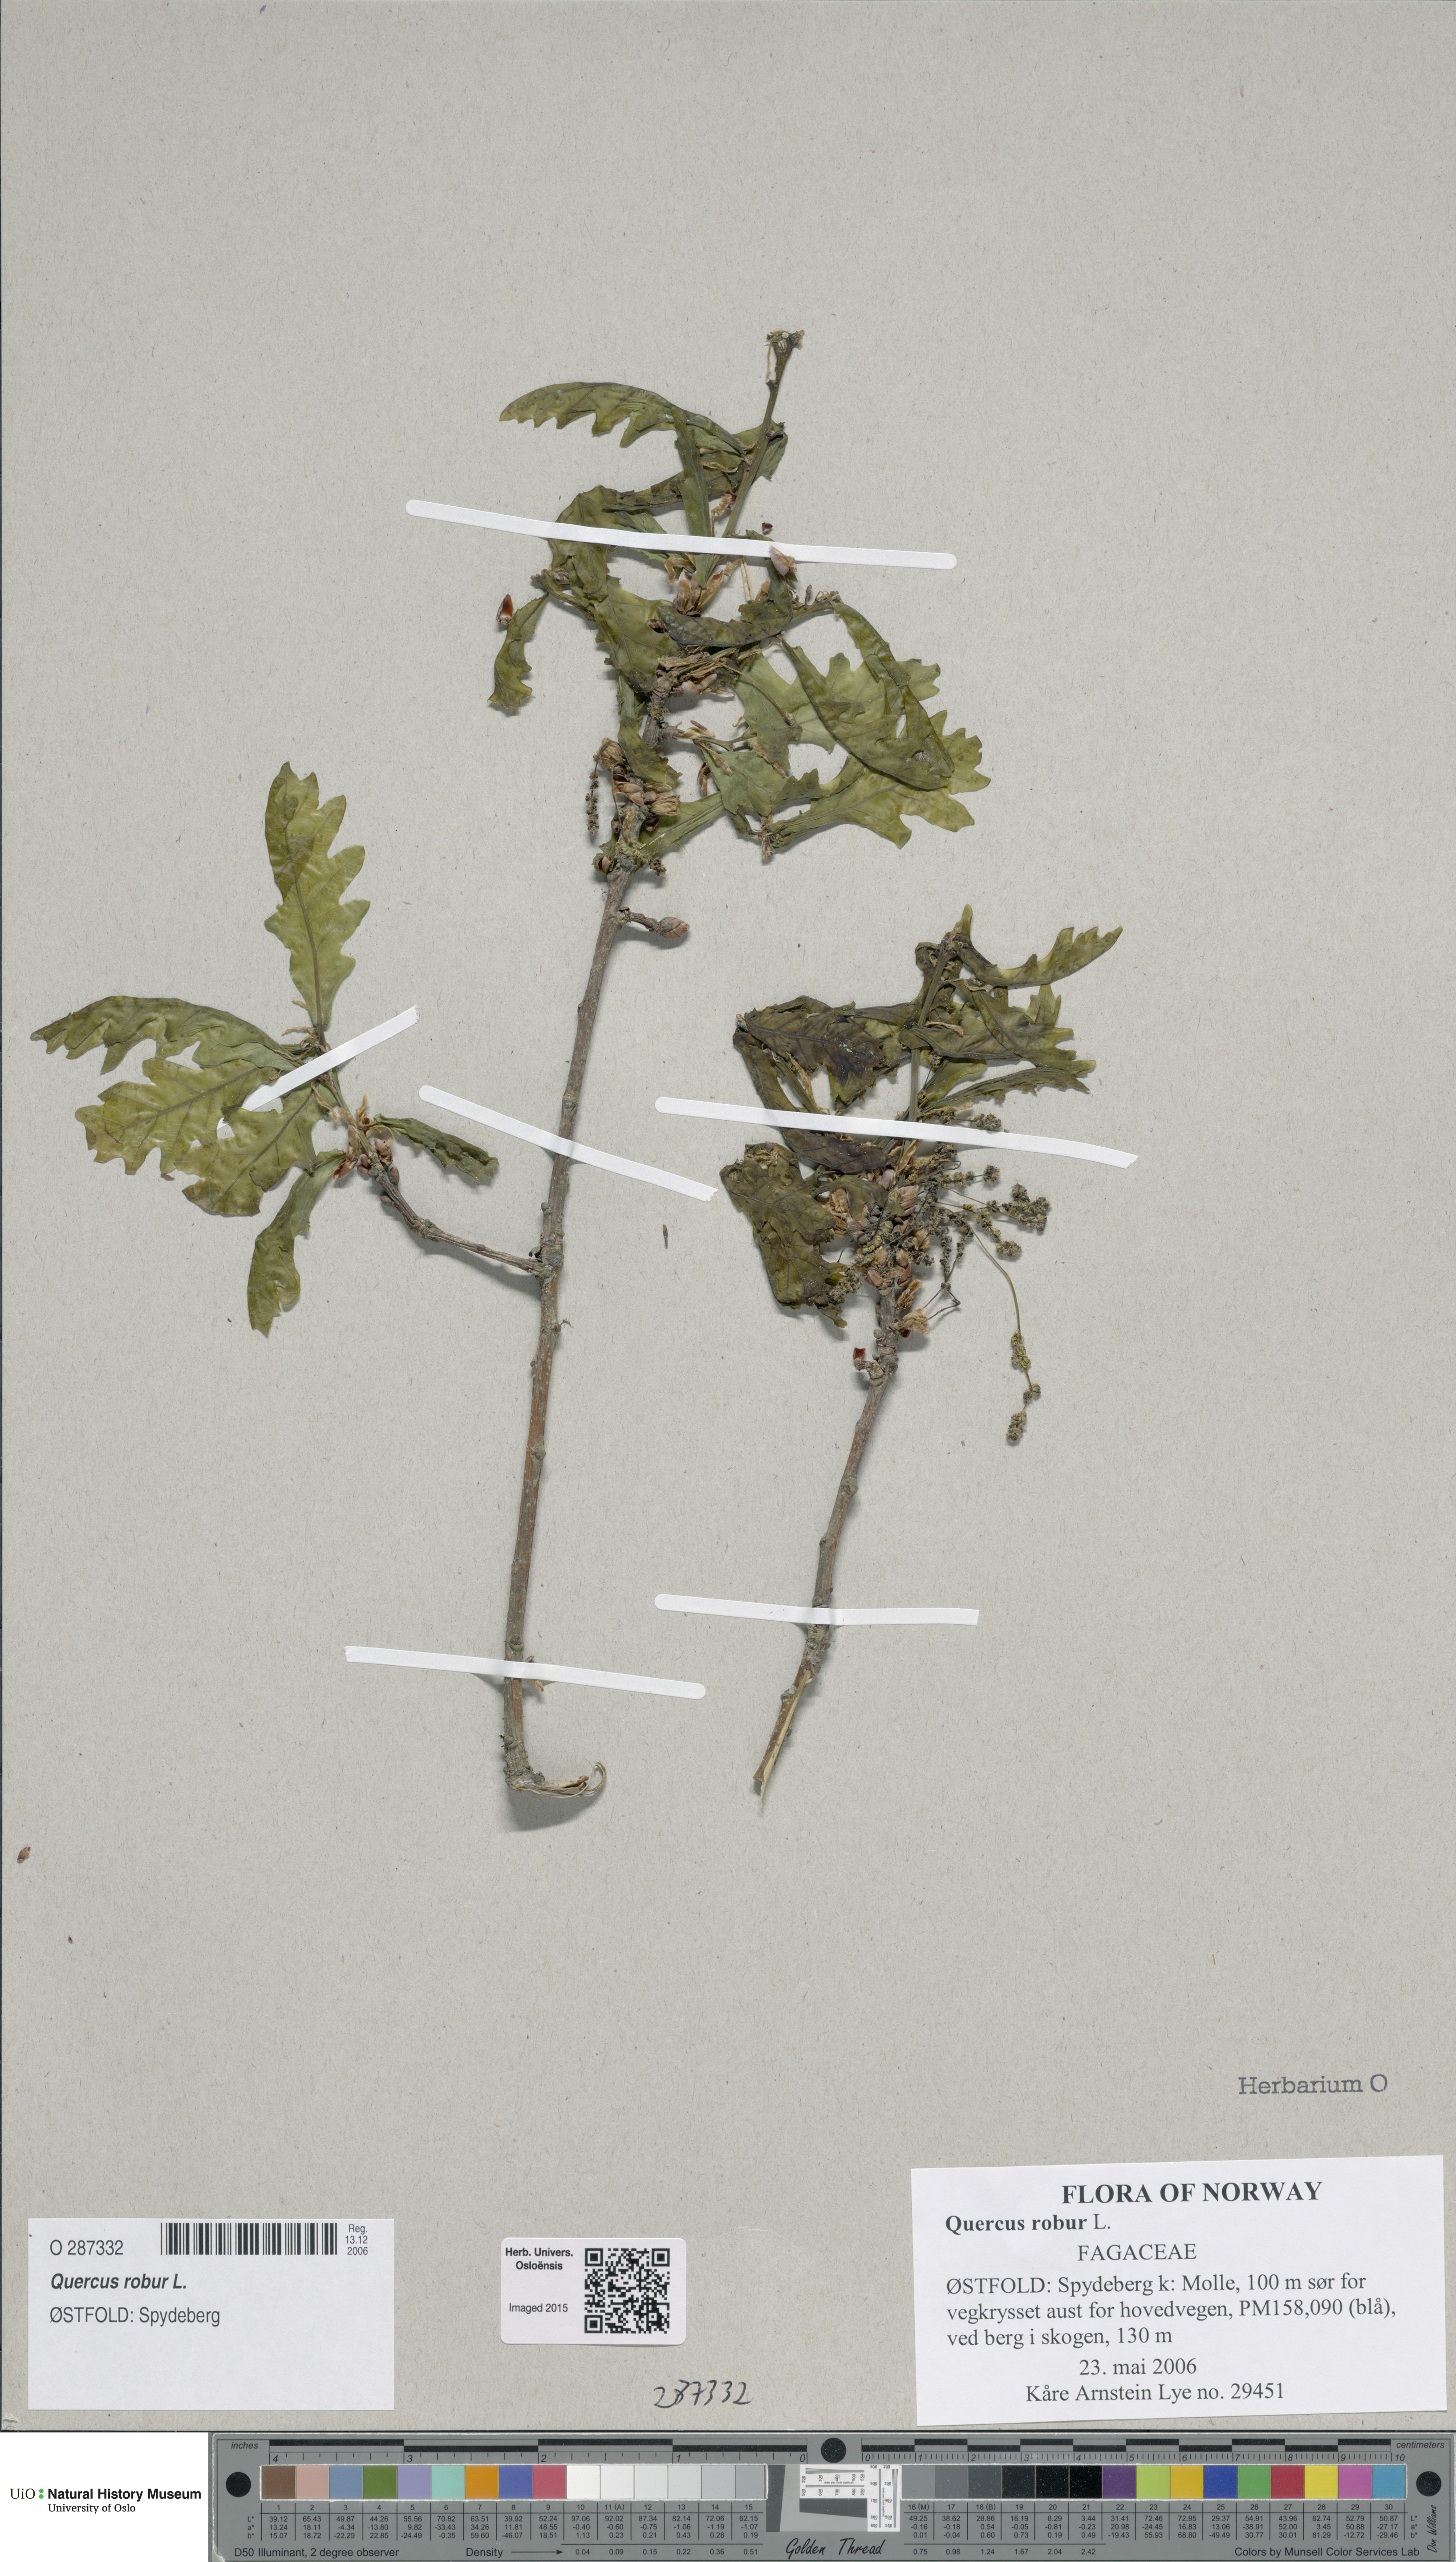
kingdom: Plantae
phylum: Tracheophyta
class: Magnoliopsida
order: Fagales
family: Fagaceae
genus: Quercus
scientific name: Quercus robur
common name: Pedunculate oak
